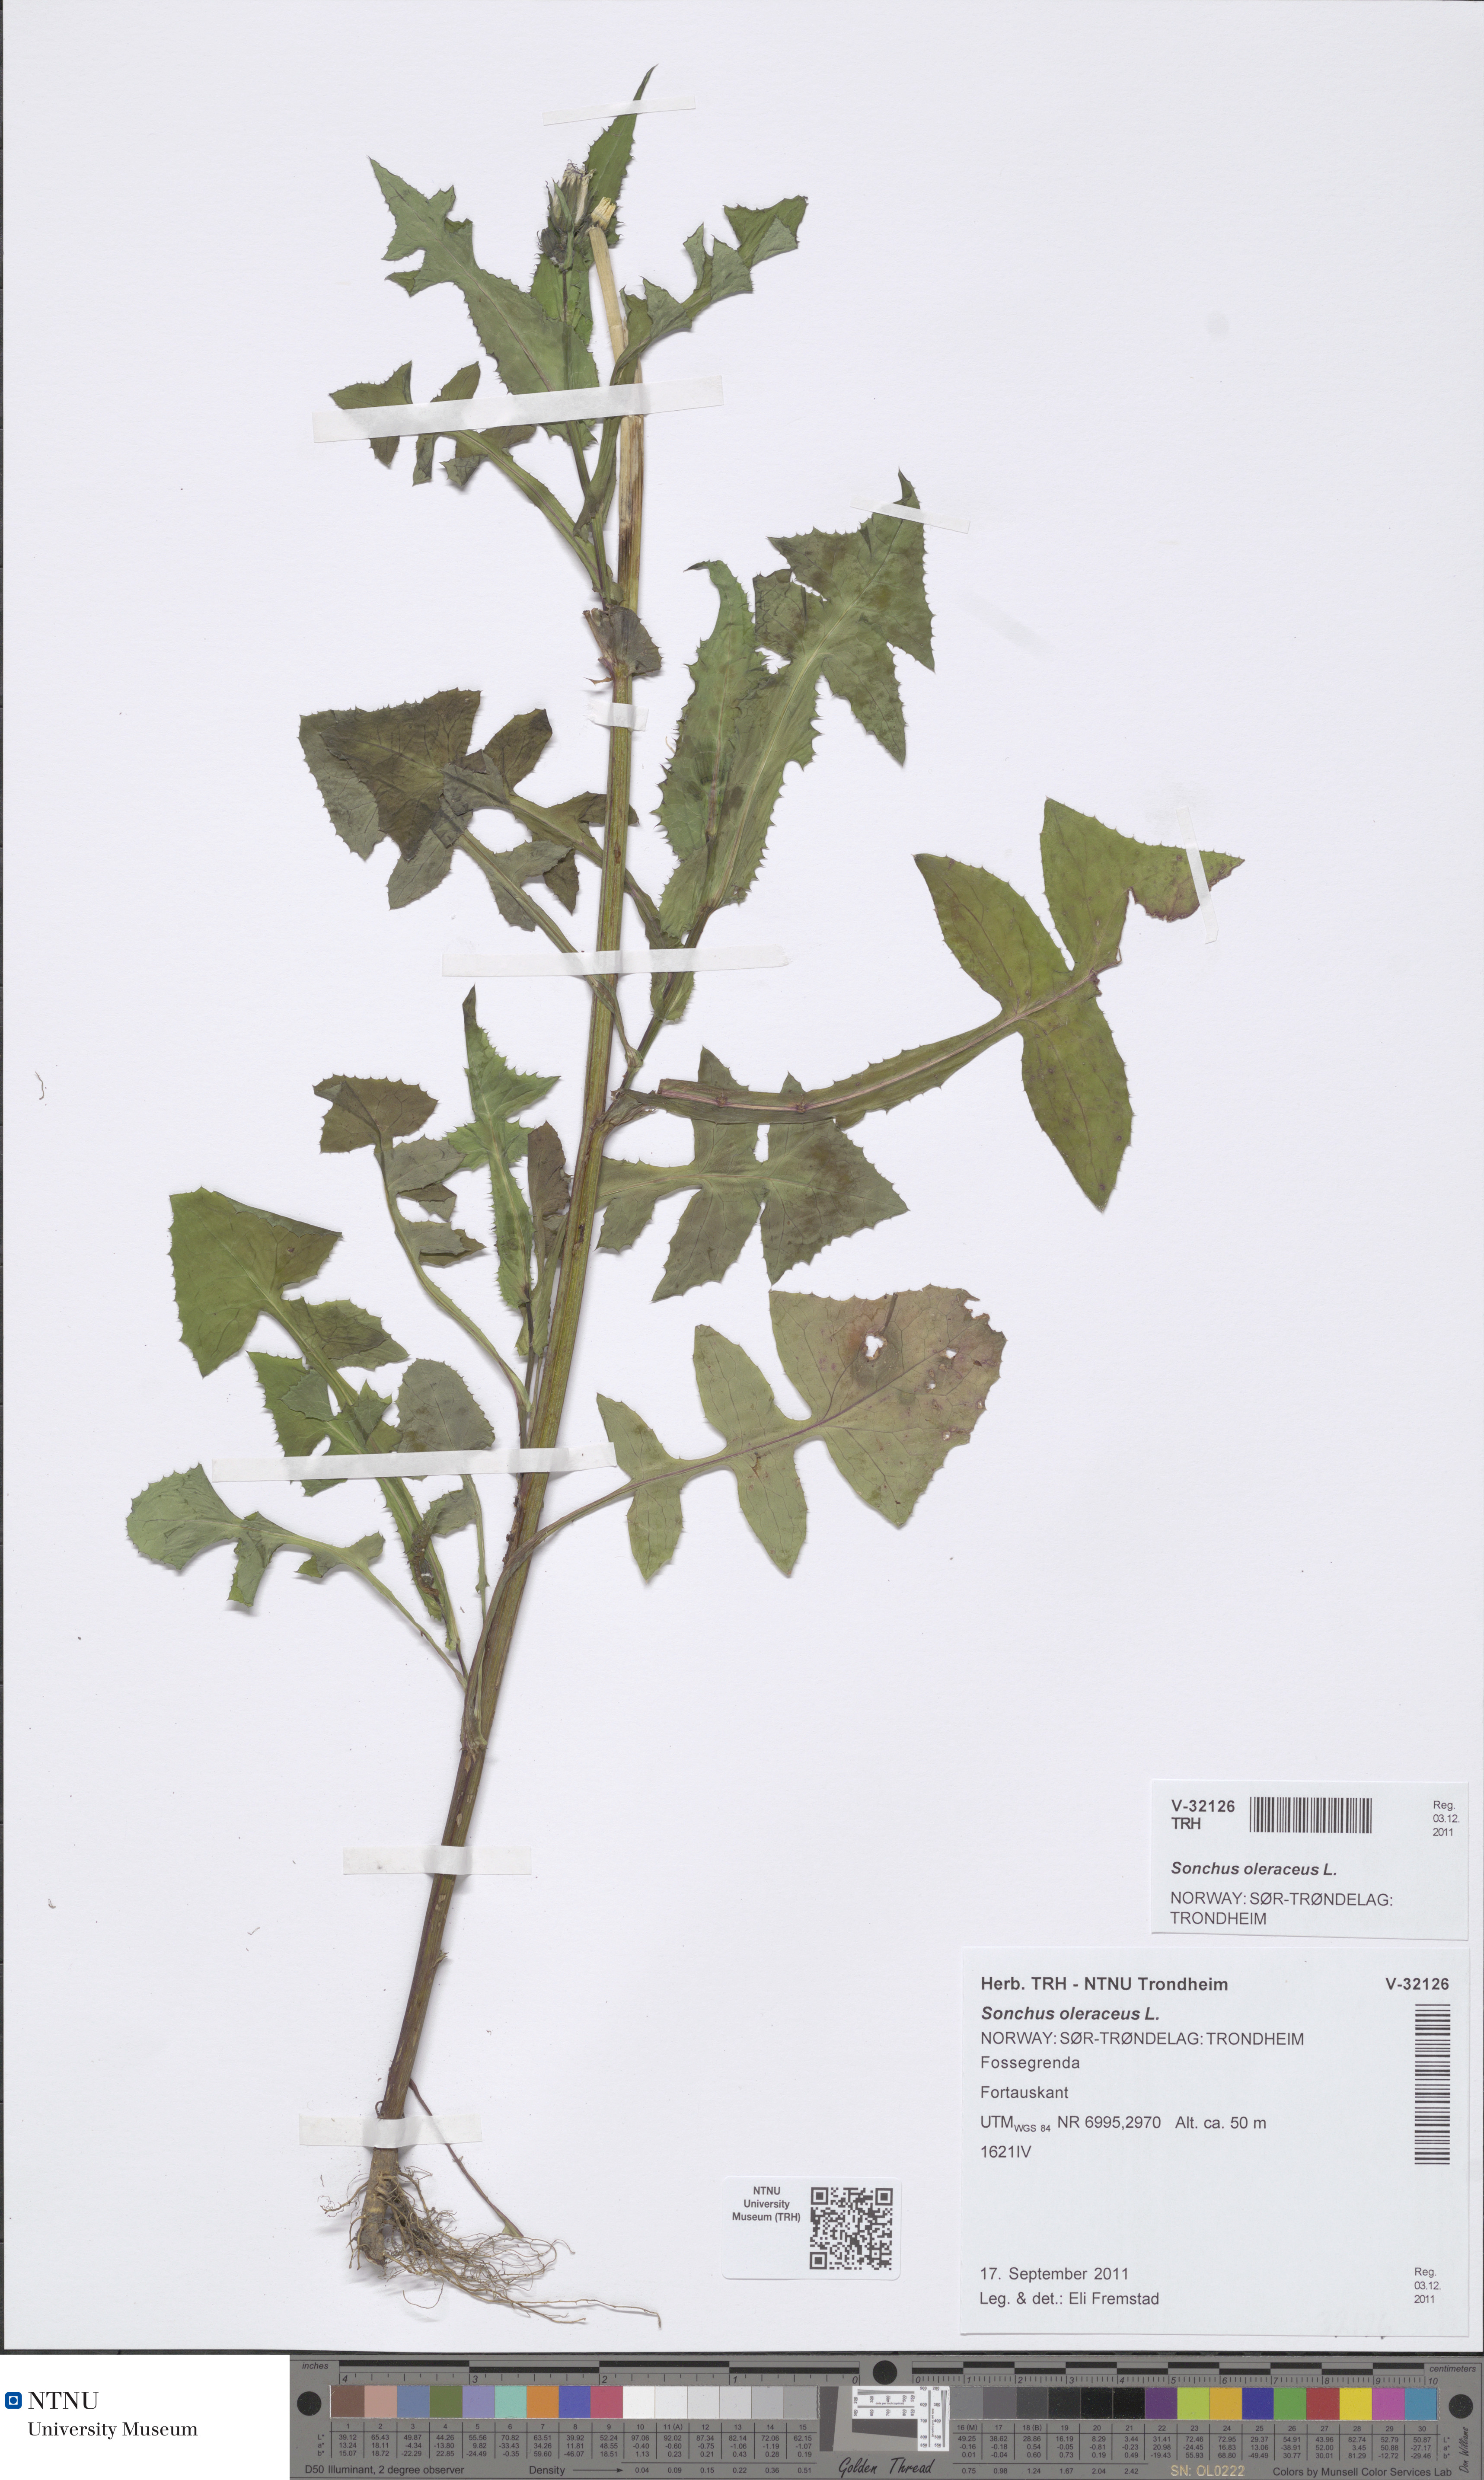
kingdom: Plantae
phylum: Tracheophyta
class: Magnoliopsida
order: Asterales
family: Asteraceae
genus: Sonchus
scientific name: Sonchus oleraceus
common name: Common sowthistle
